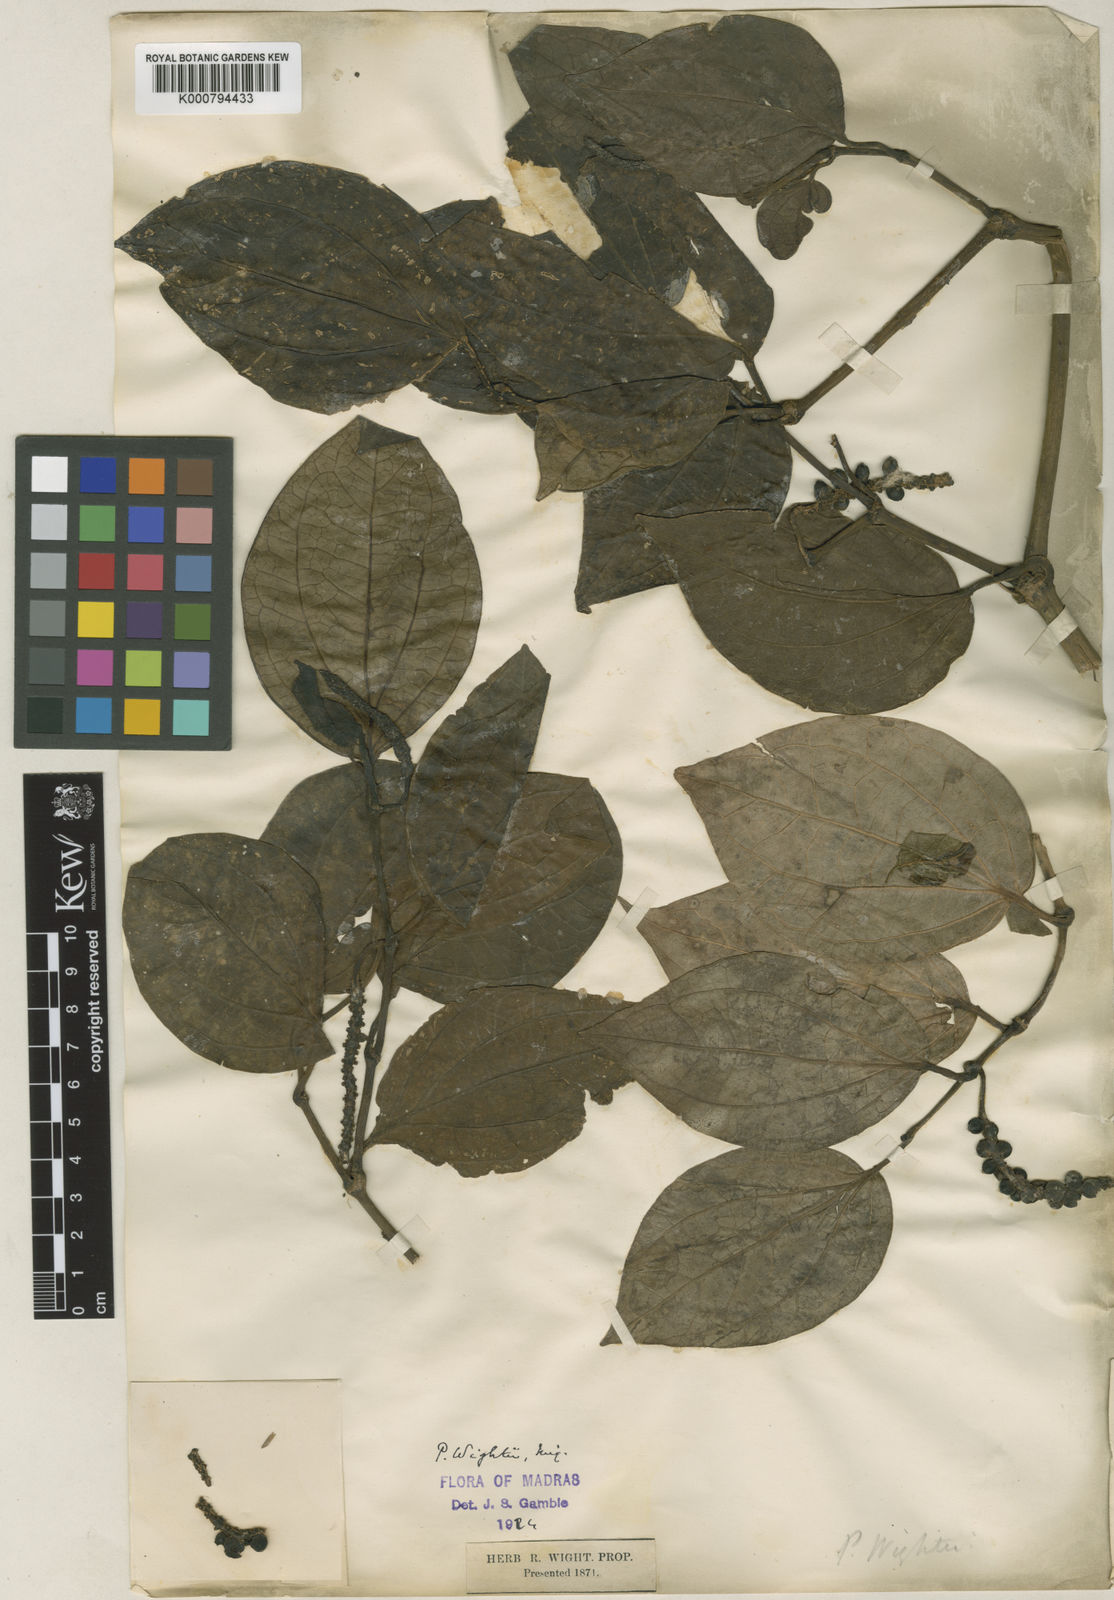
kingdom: Plantae
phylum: Tracheophyta
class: Magnoliopsida
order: Piperales
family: Piperaceae
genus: Piper
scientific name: Piper wightii
